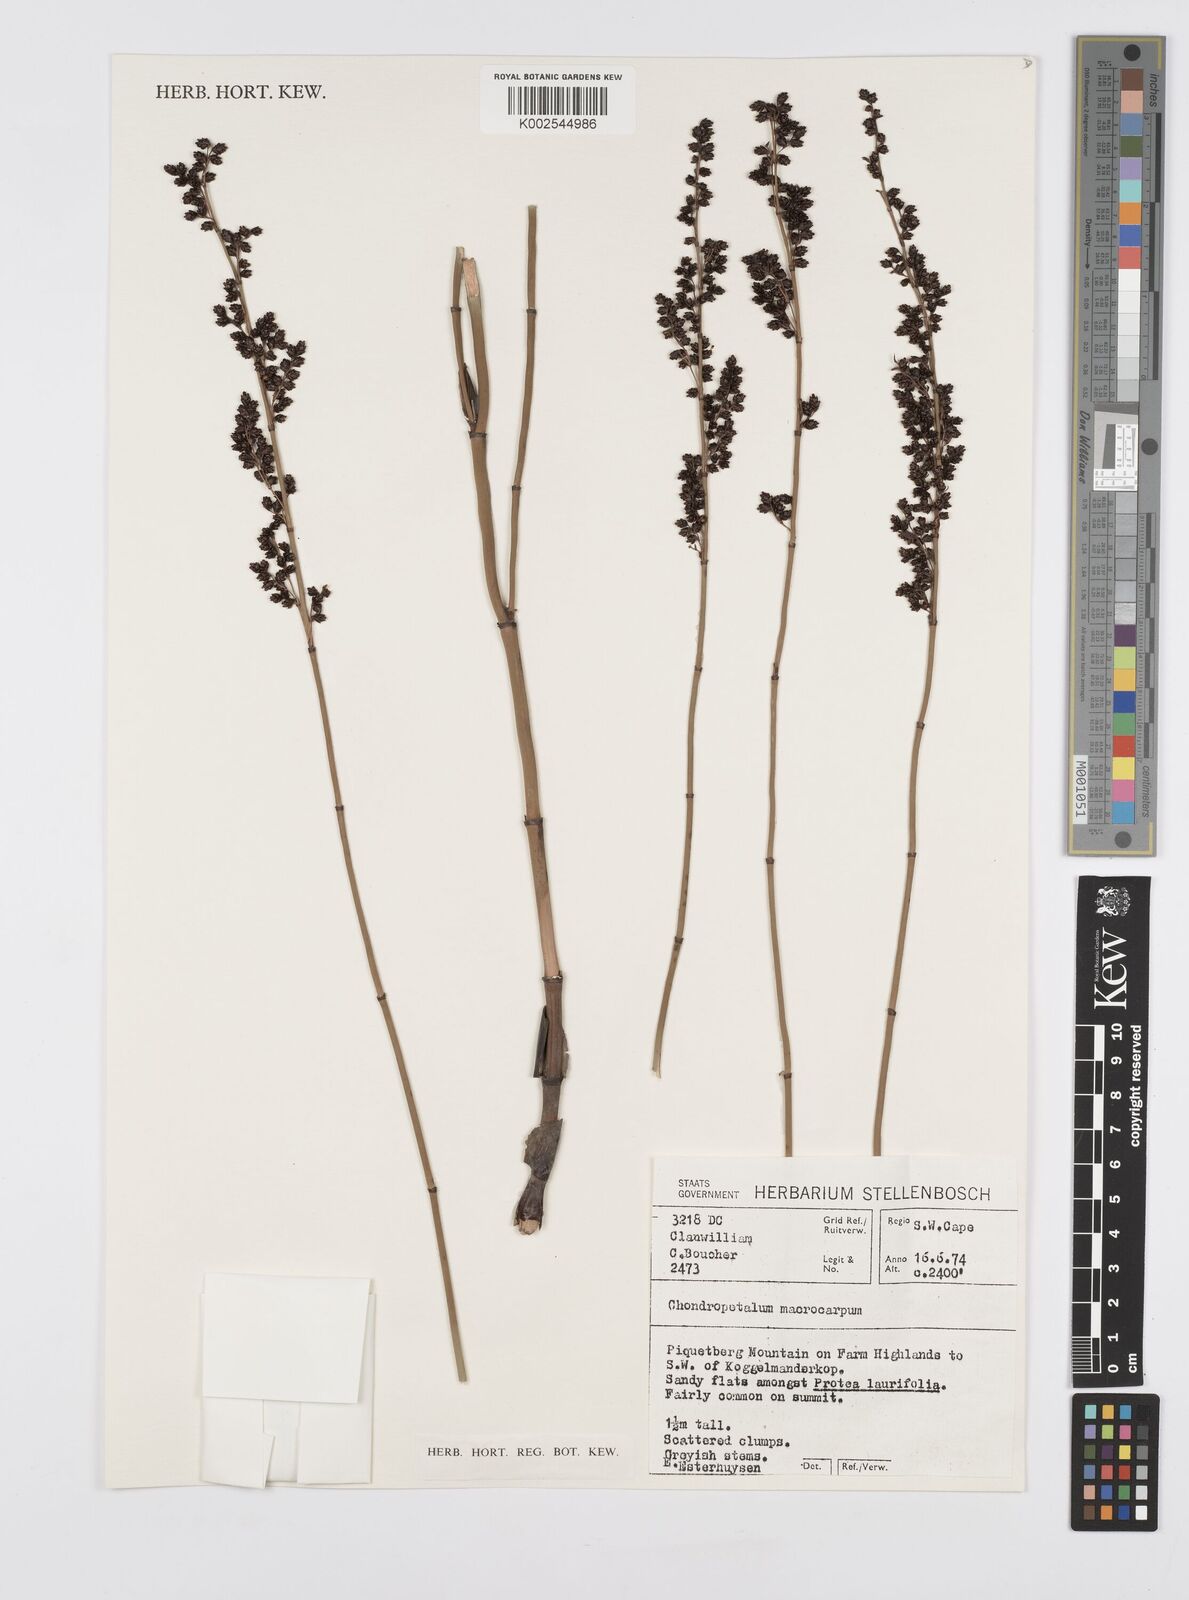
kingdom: Plantae
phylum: Tracheophyta
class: Liliopsida
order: Poales
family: Restionaceae
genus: Elegia
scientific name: Elegia macrocarpa
